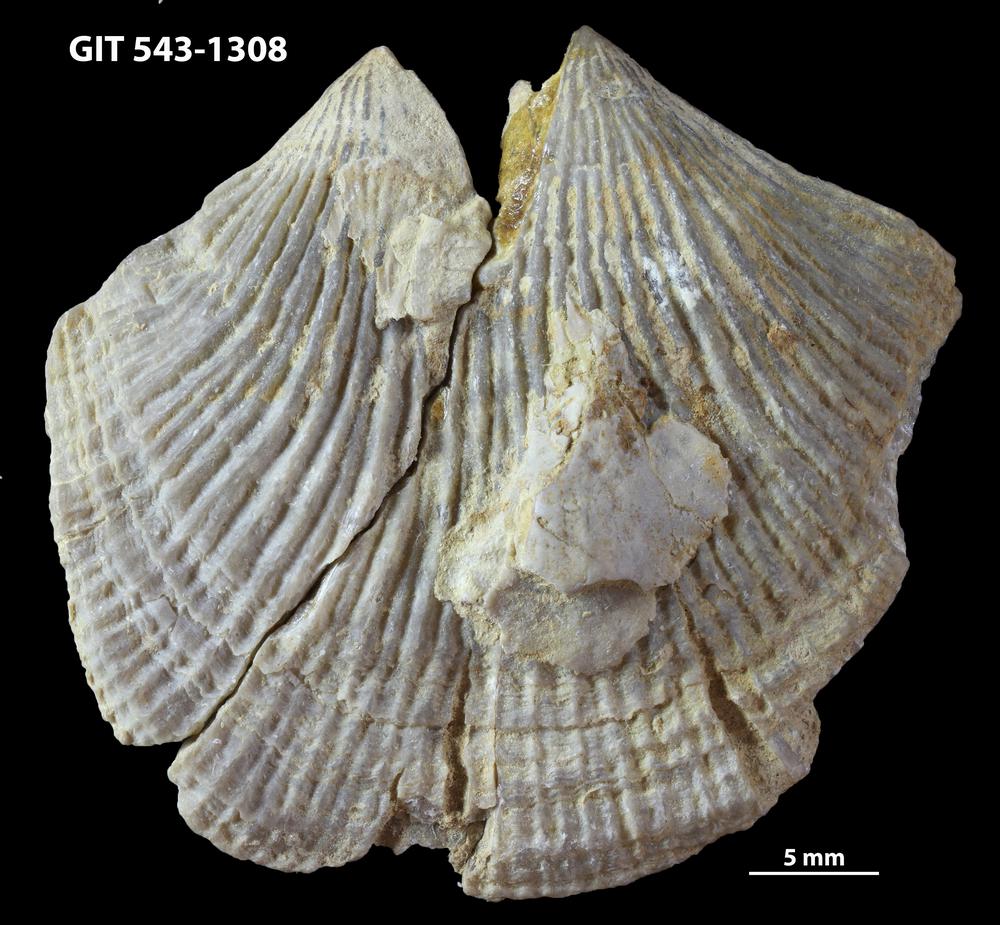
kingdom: Animalia
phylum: Brachiopoda
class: Rhynchonellata
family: Clitambonitidae
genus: Vellamo
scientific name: Vellamo
